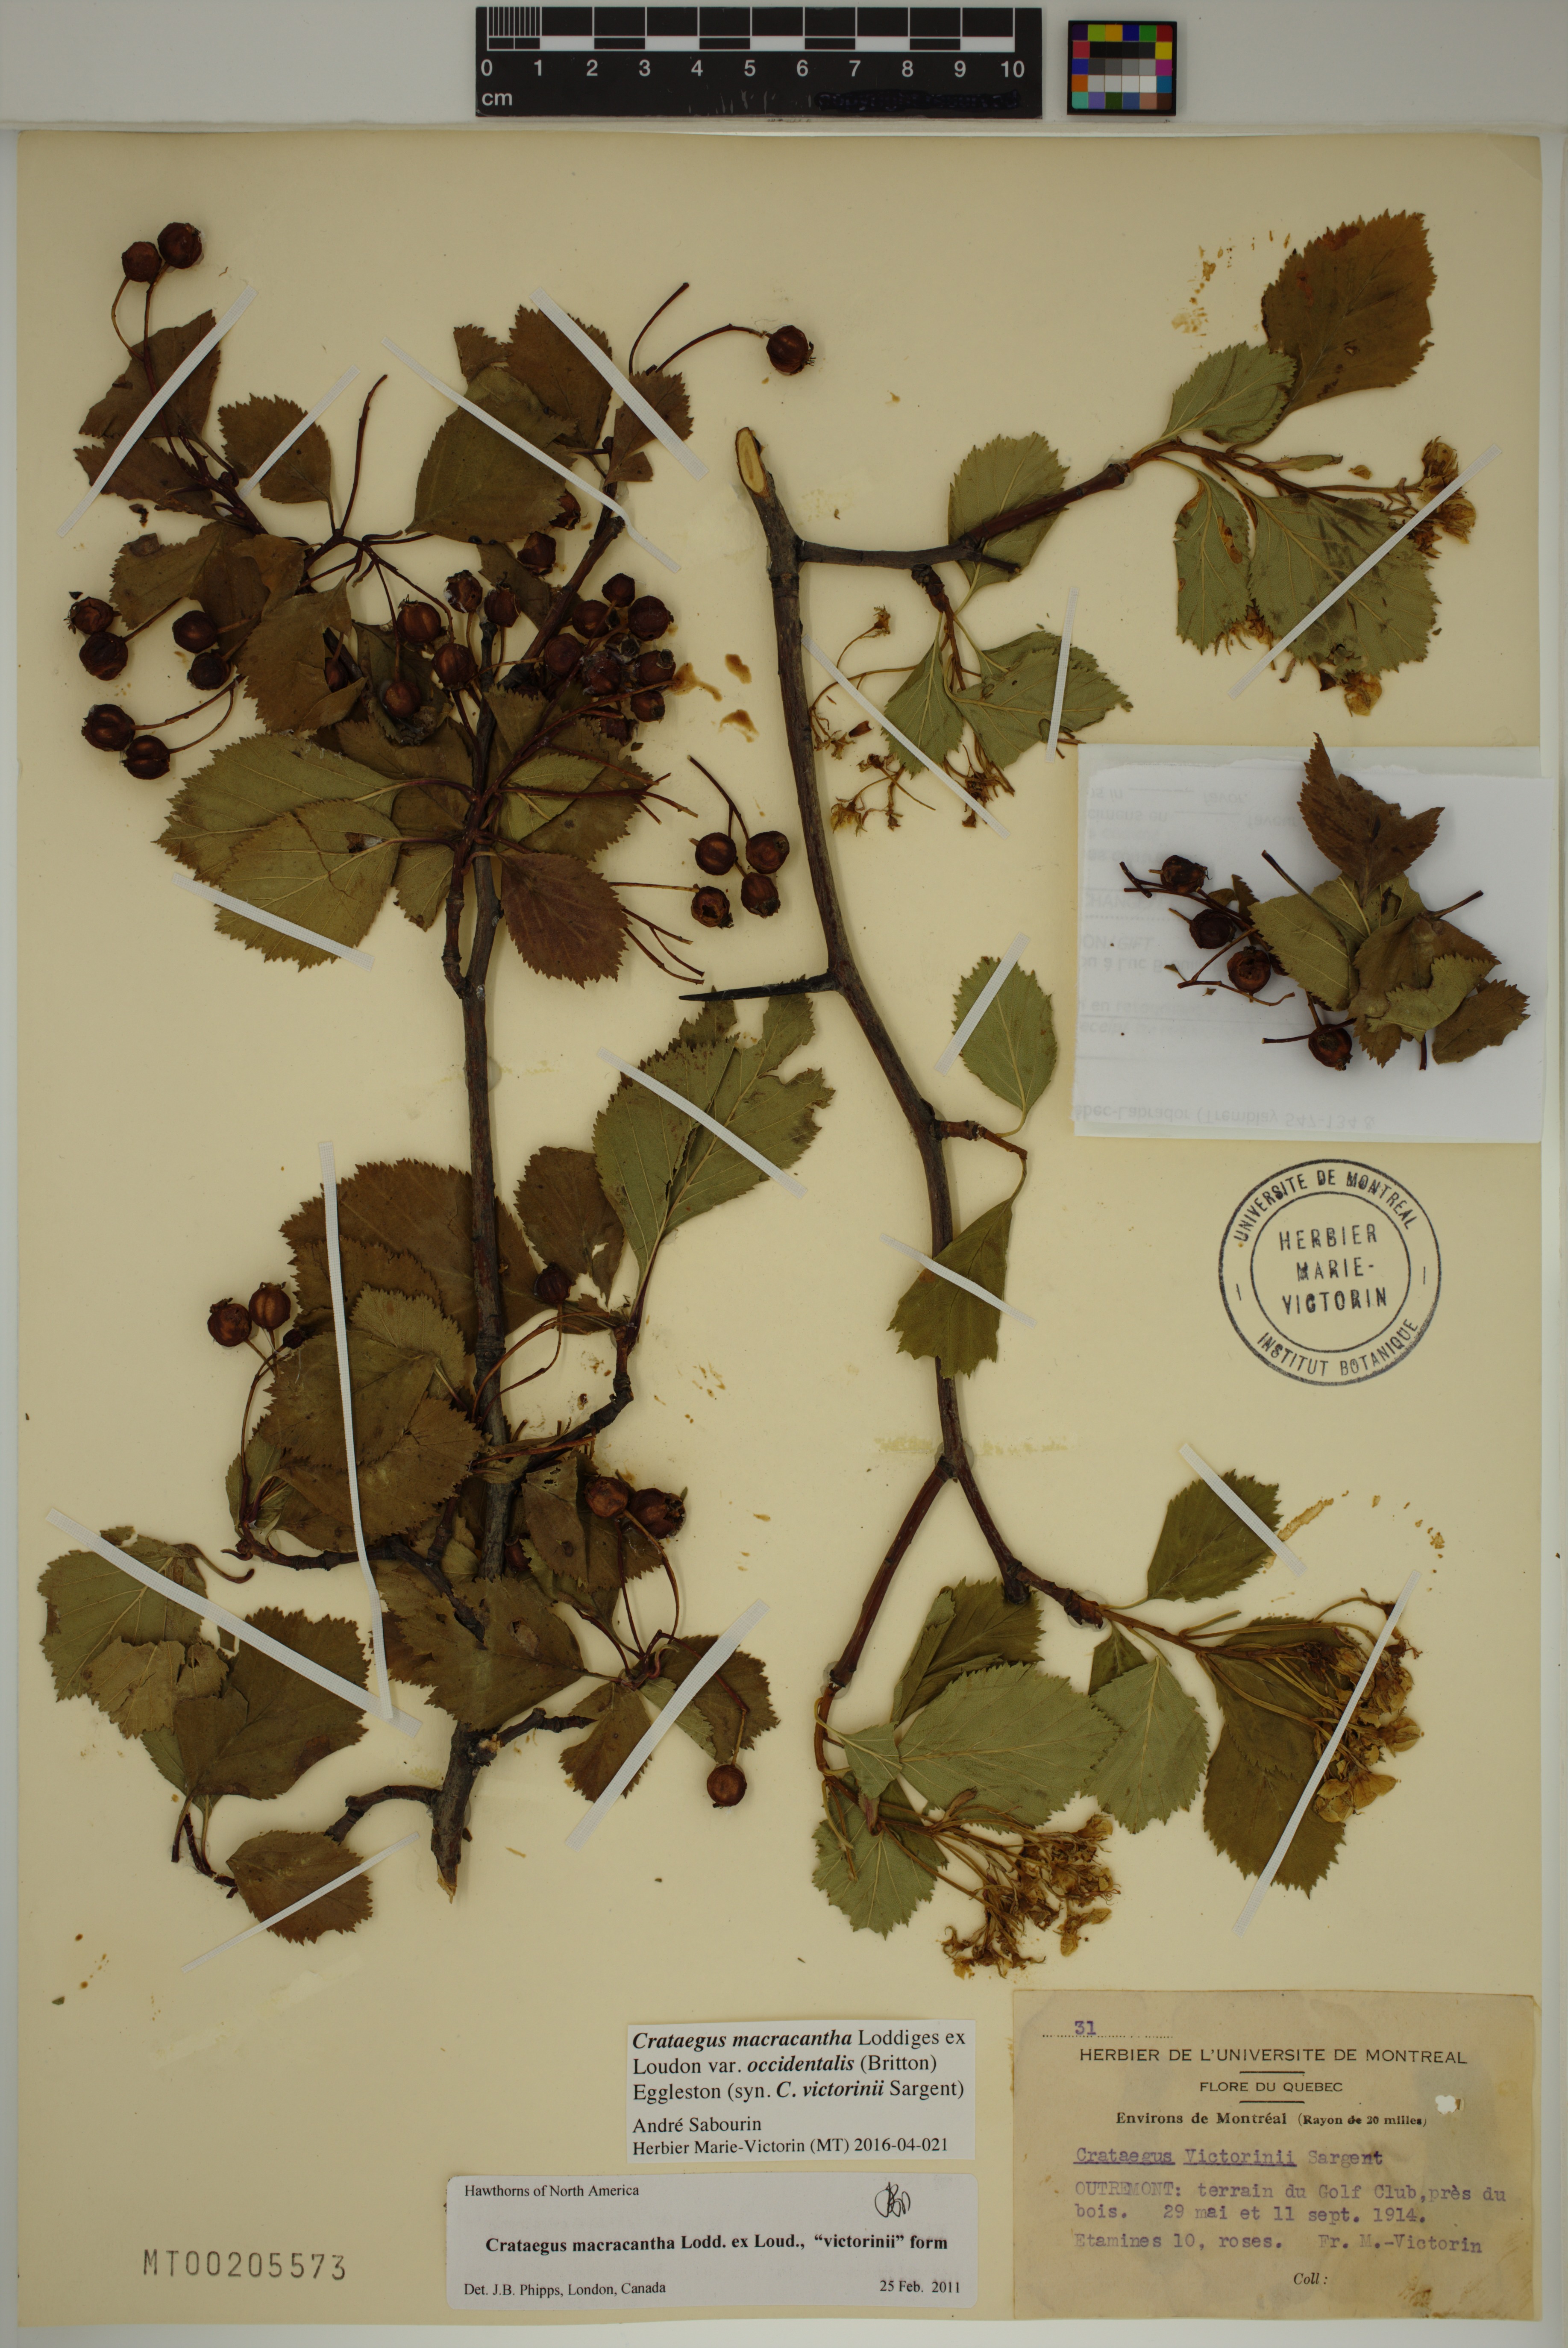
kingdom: Plantae
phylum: Tracheophyta
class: Magnoliopsida
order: Rosales
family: Rosaceae
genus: Crataegus
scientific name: Crataegus macracantha
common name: Large-thorn hawthorn
